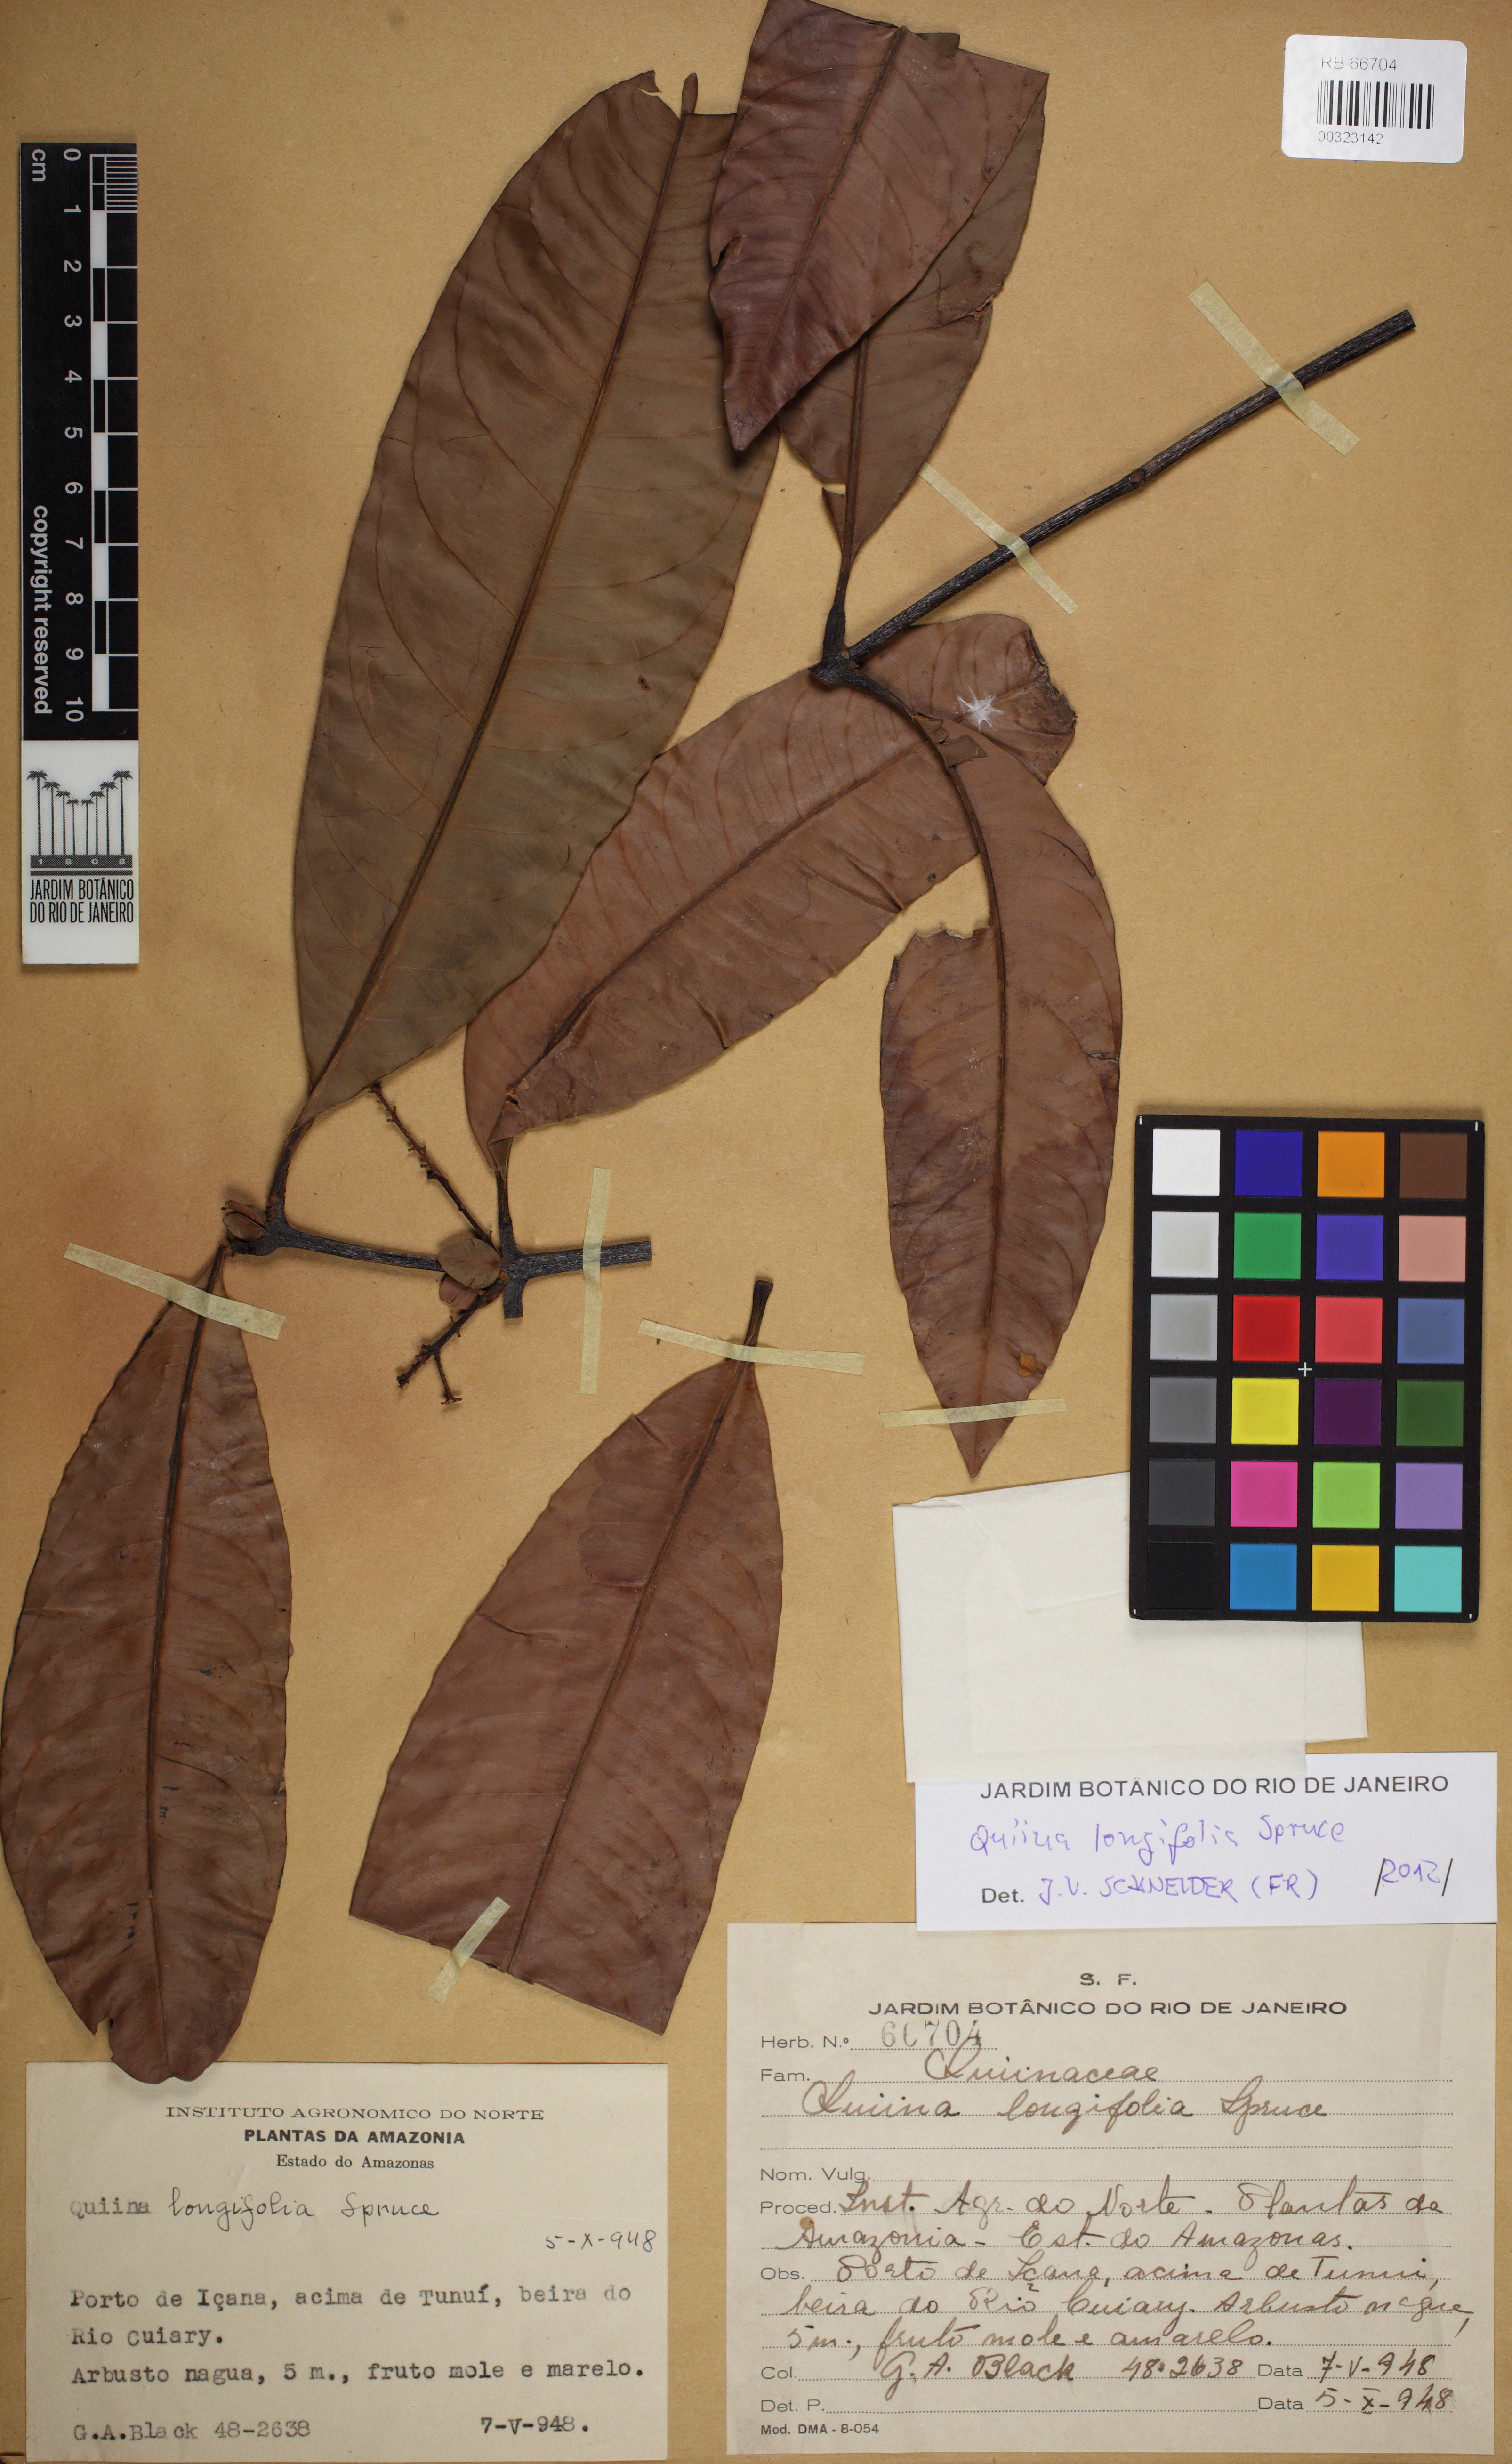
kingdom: Plantae
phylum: Tracheophyta
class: Magnoliopsida
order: Malpighiales
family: Quiinaceae
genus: Quiina
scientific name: Quiina longifolia
